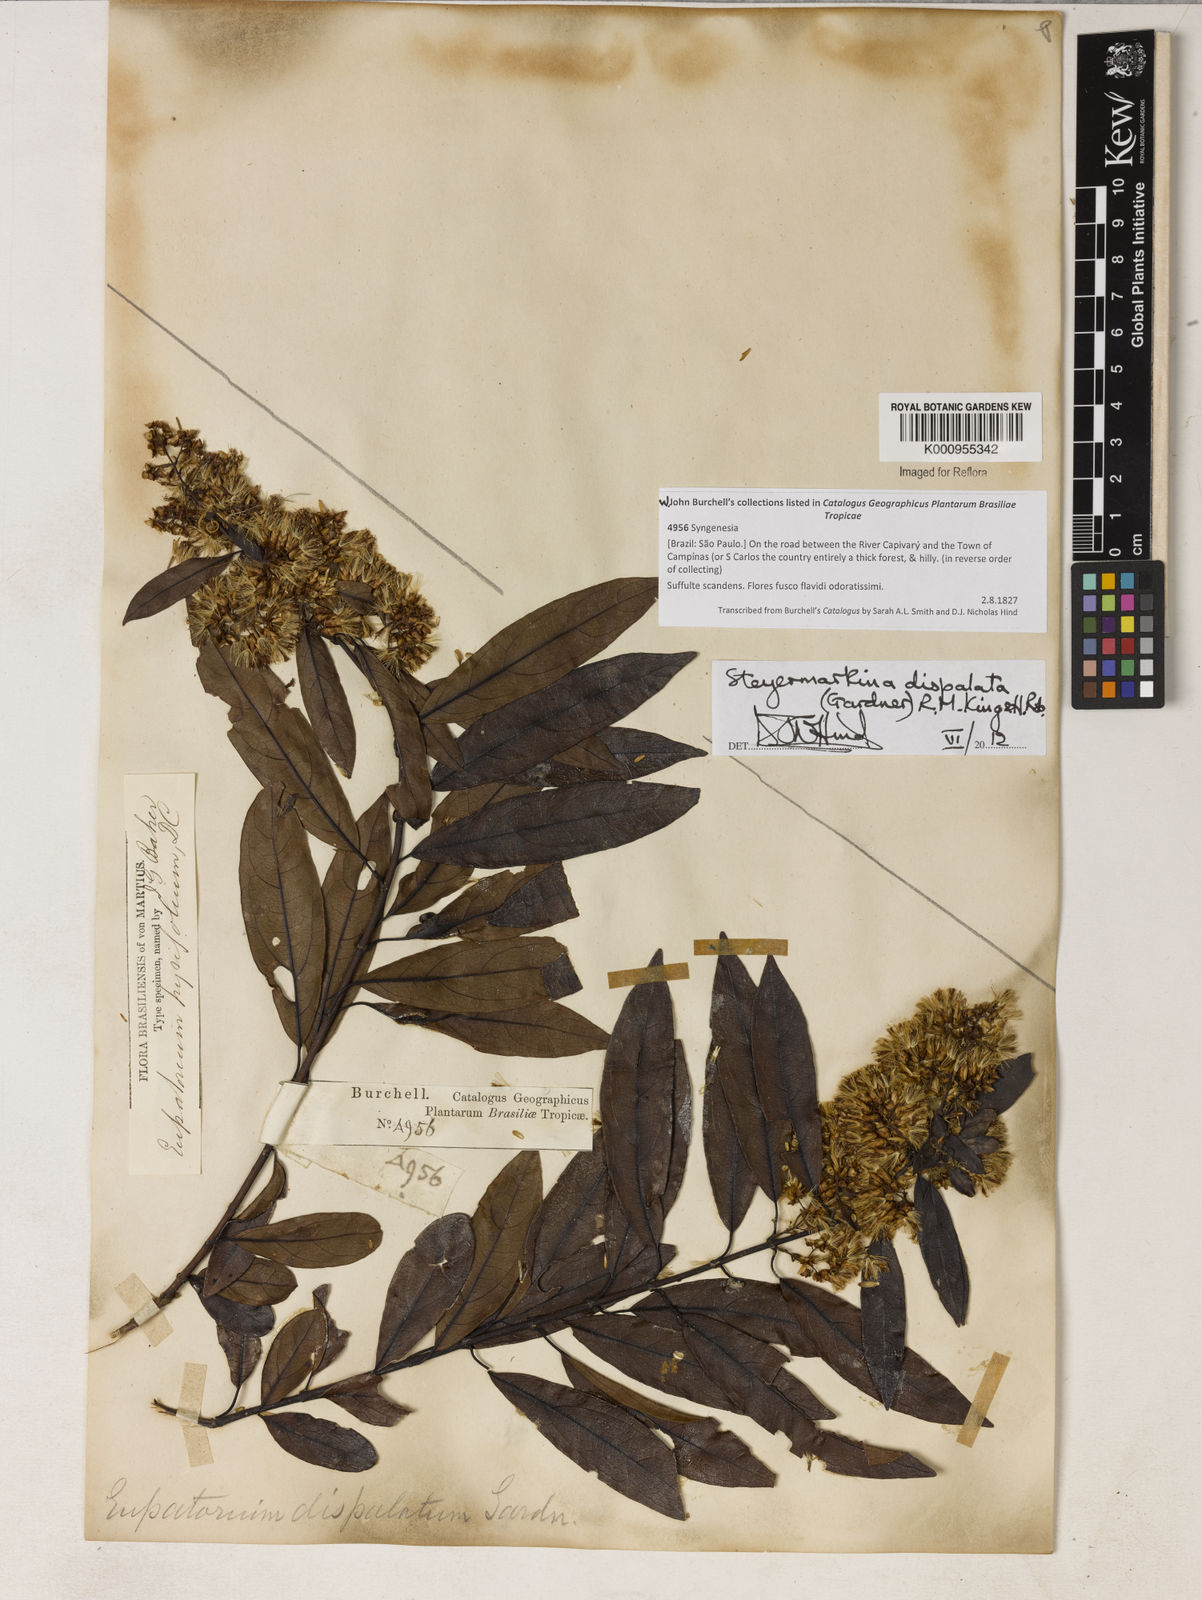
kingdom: Plantae
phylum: Tracheophyta
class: Magnoliopsida
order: Asterales
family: Asteraceae
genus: Steyermarkina
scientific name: Steyermarkina dispalata
